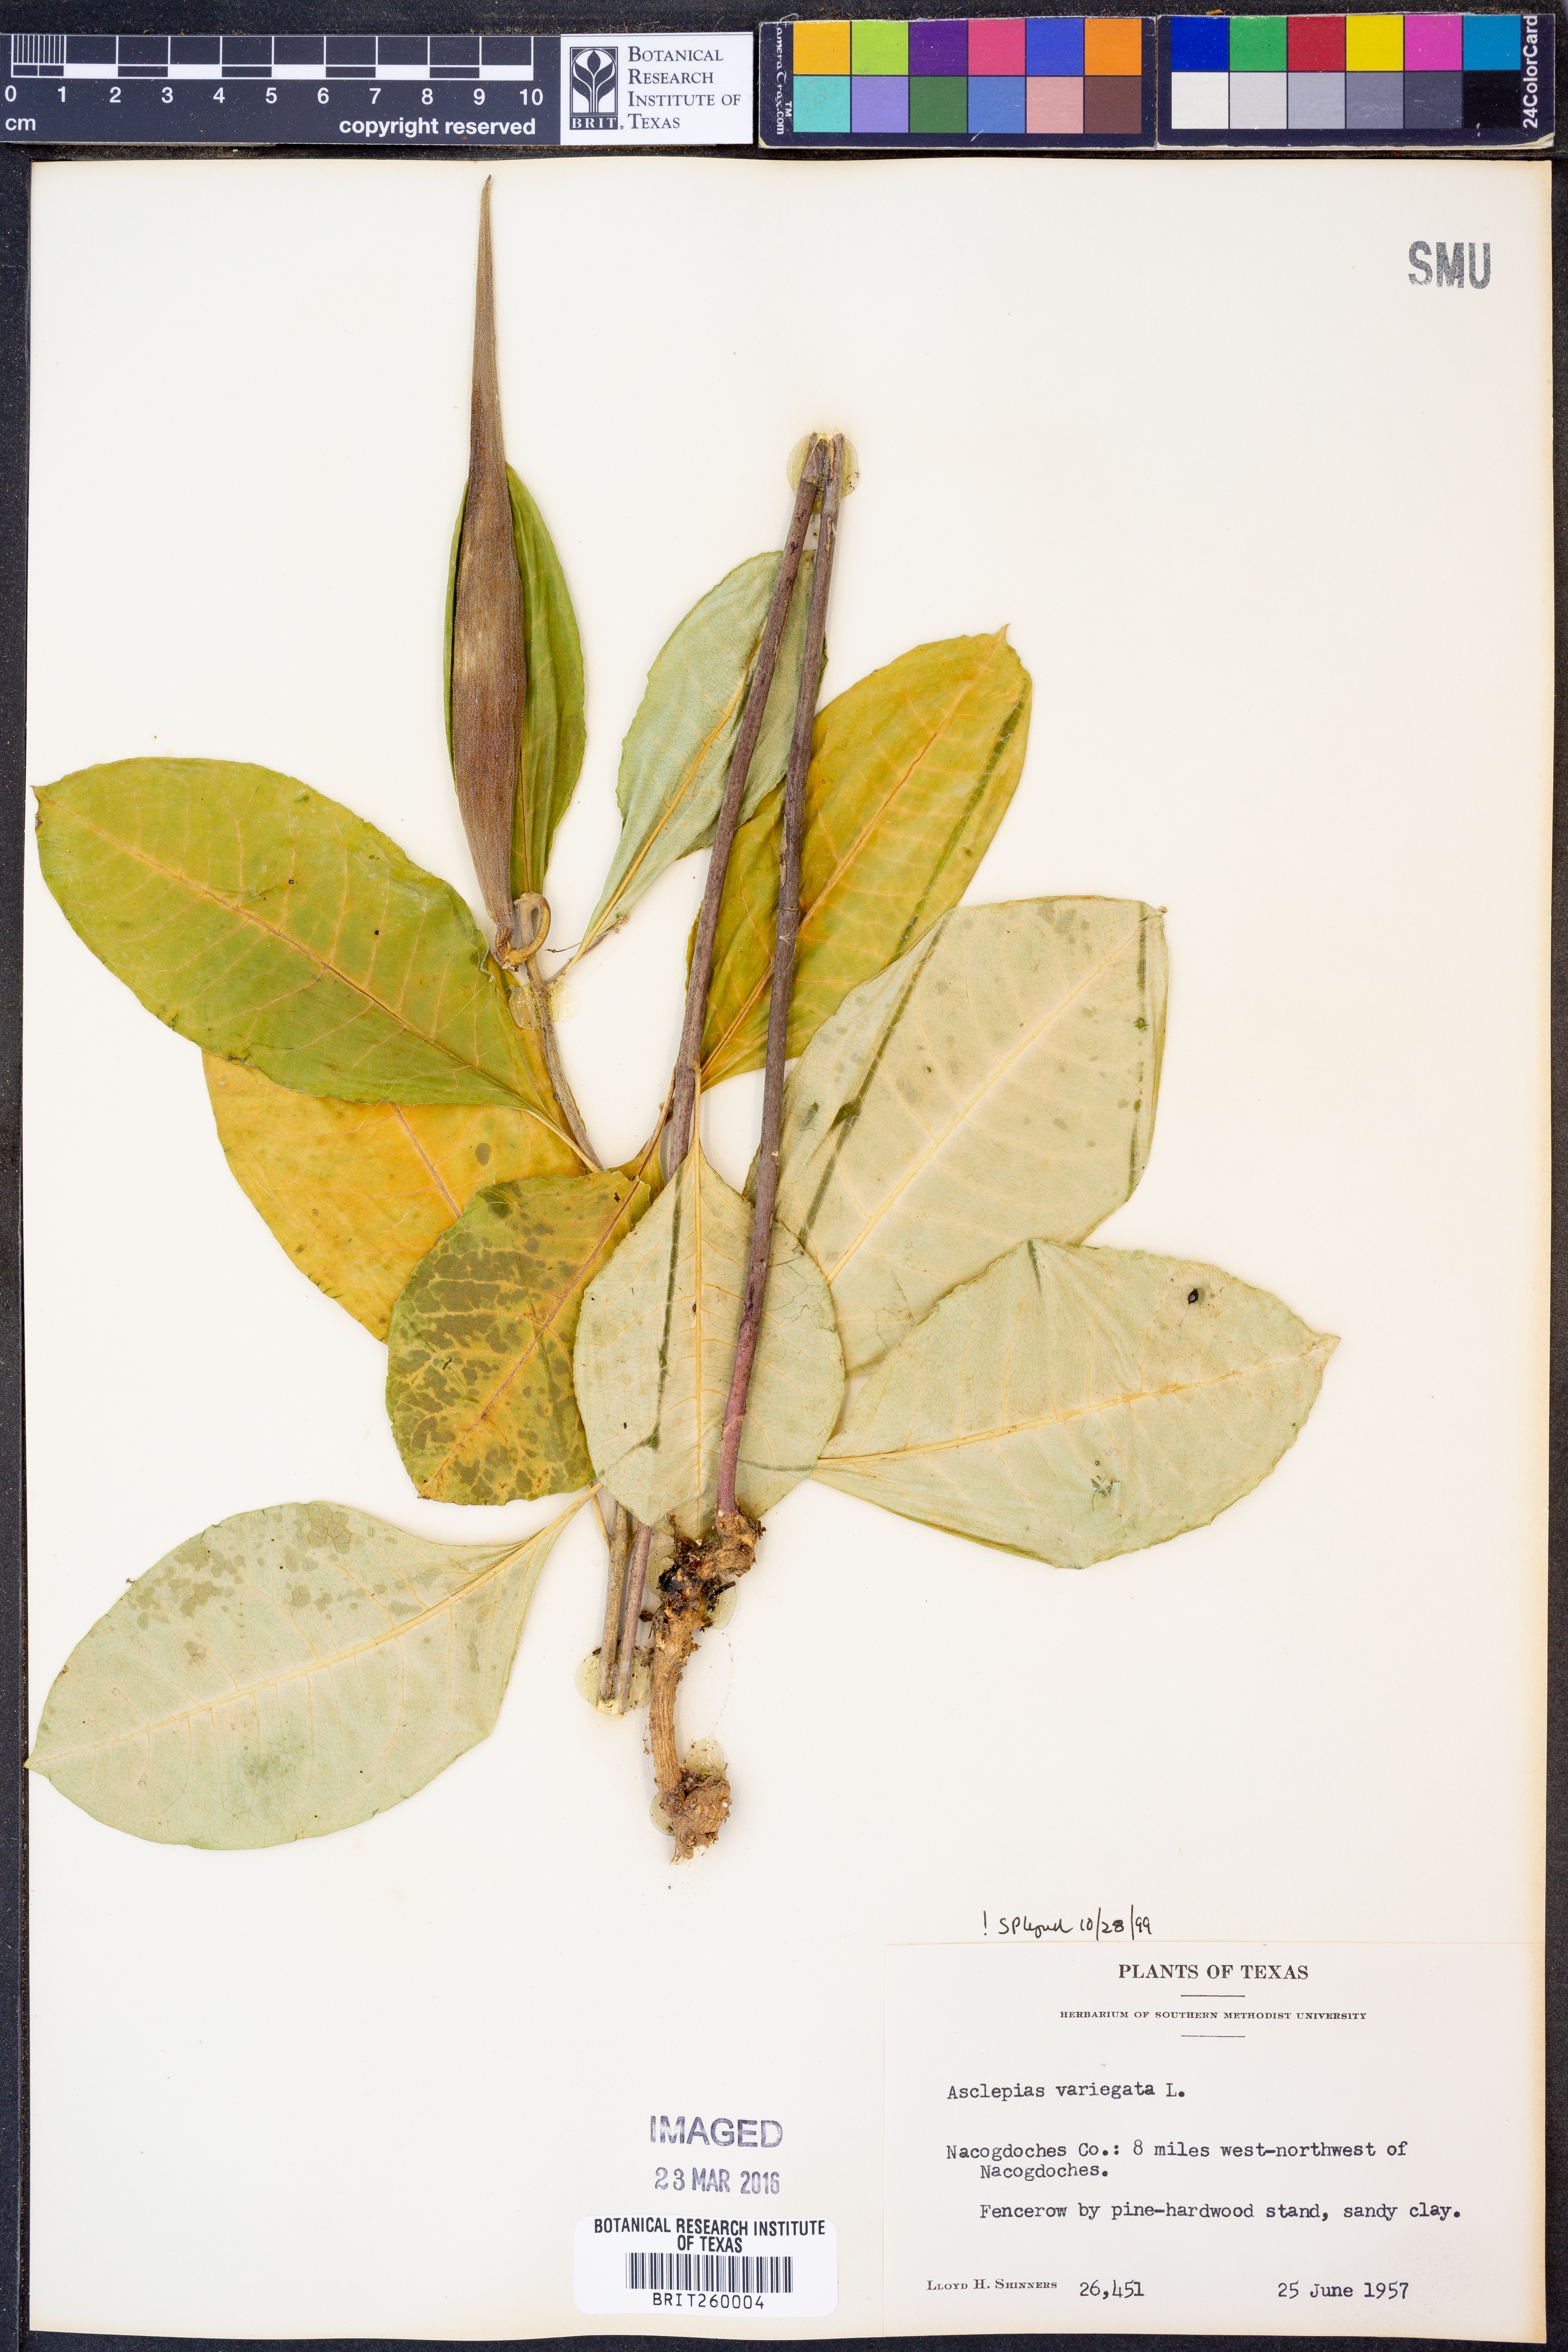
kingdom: Plantae
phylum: Tracheophyta
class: Magnoliopsida
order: Gentianales
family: Apocynaceae
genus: Asclepias
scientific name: Asclepias variegata
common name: Variegated milkweed
